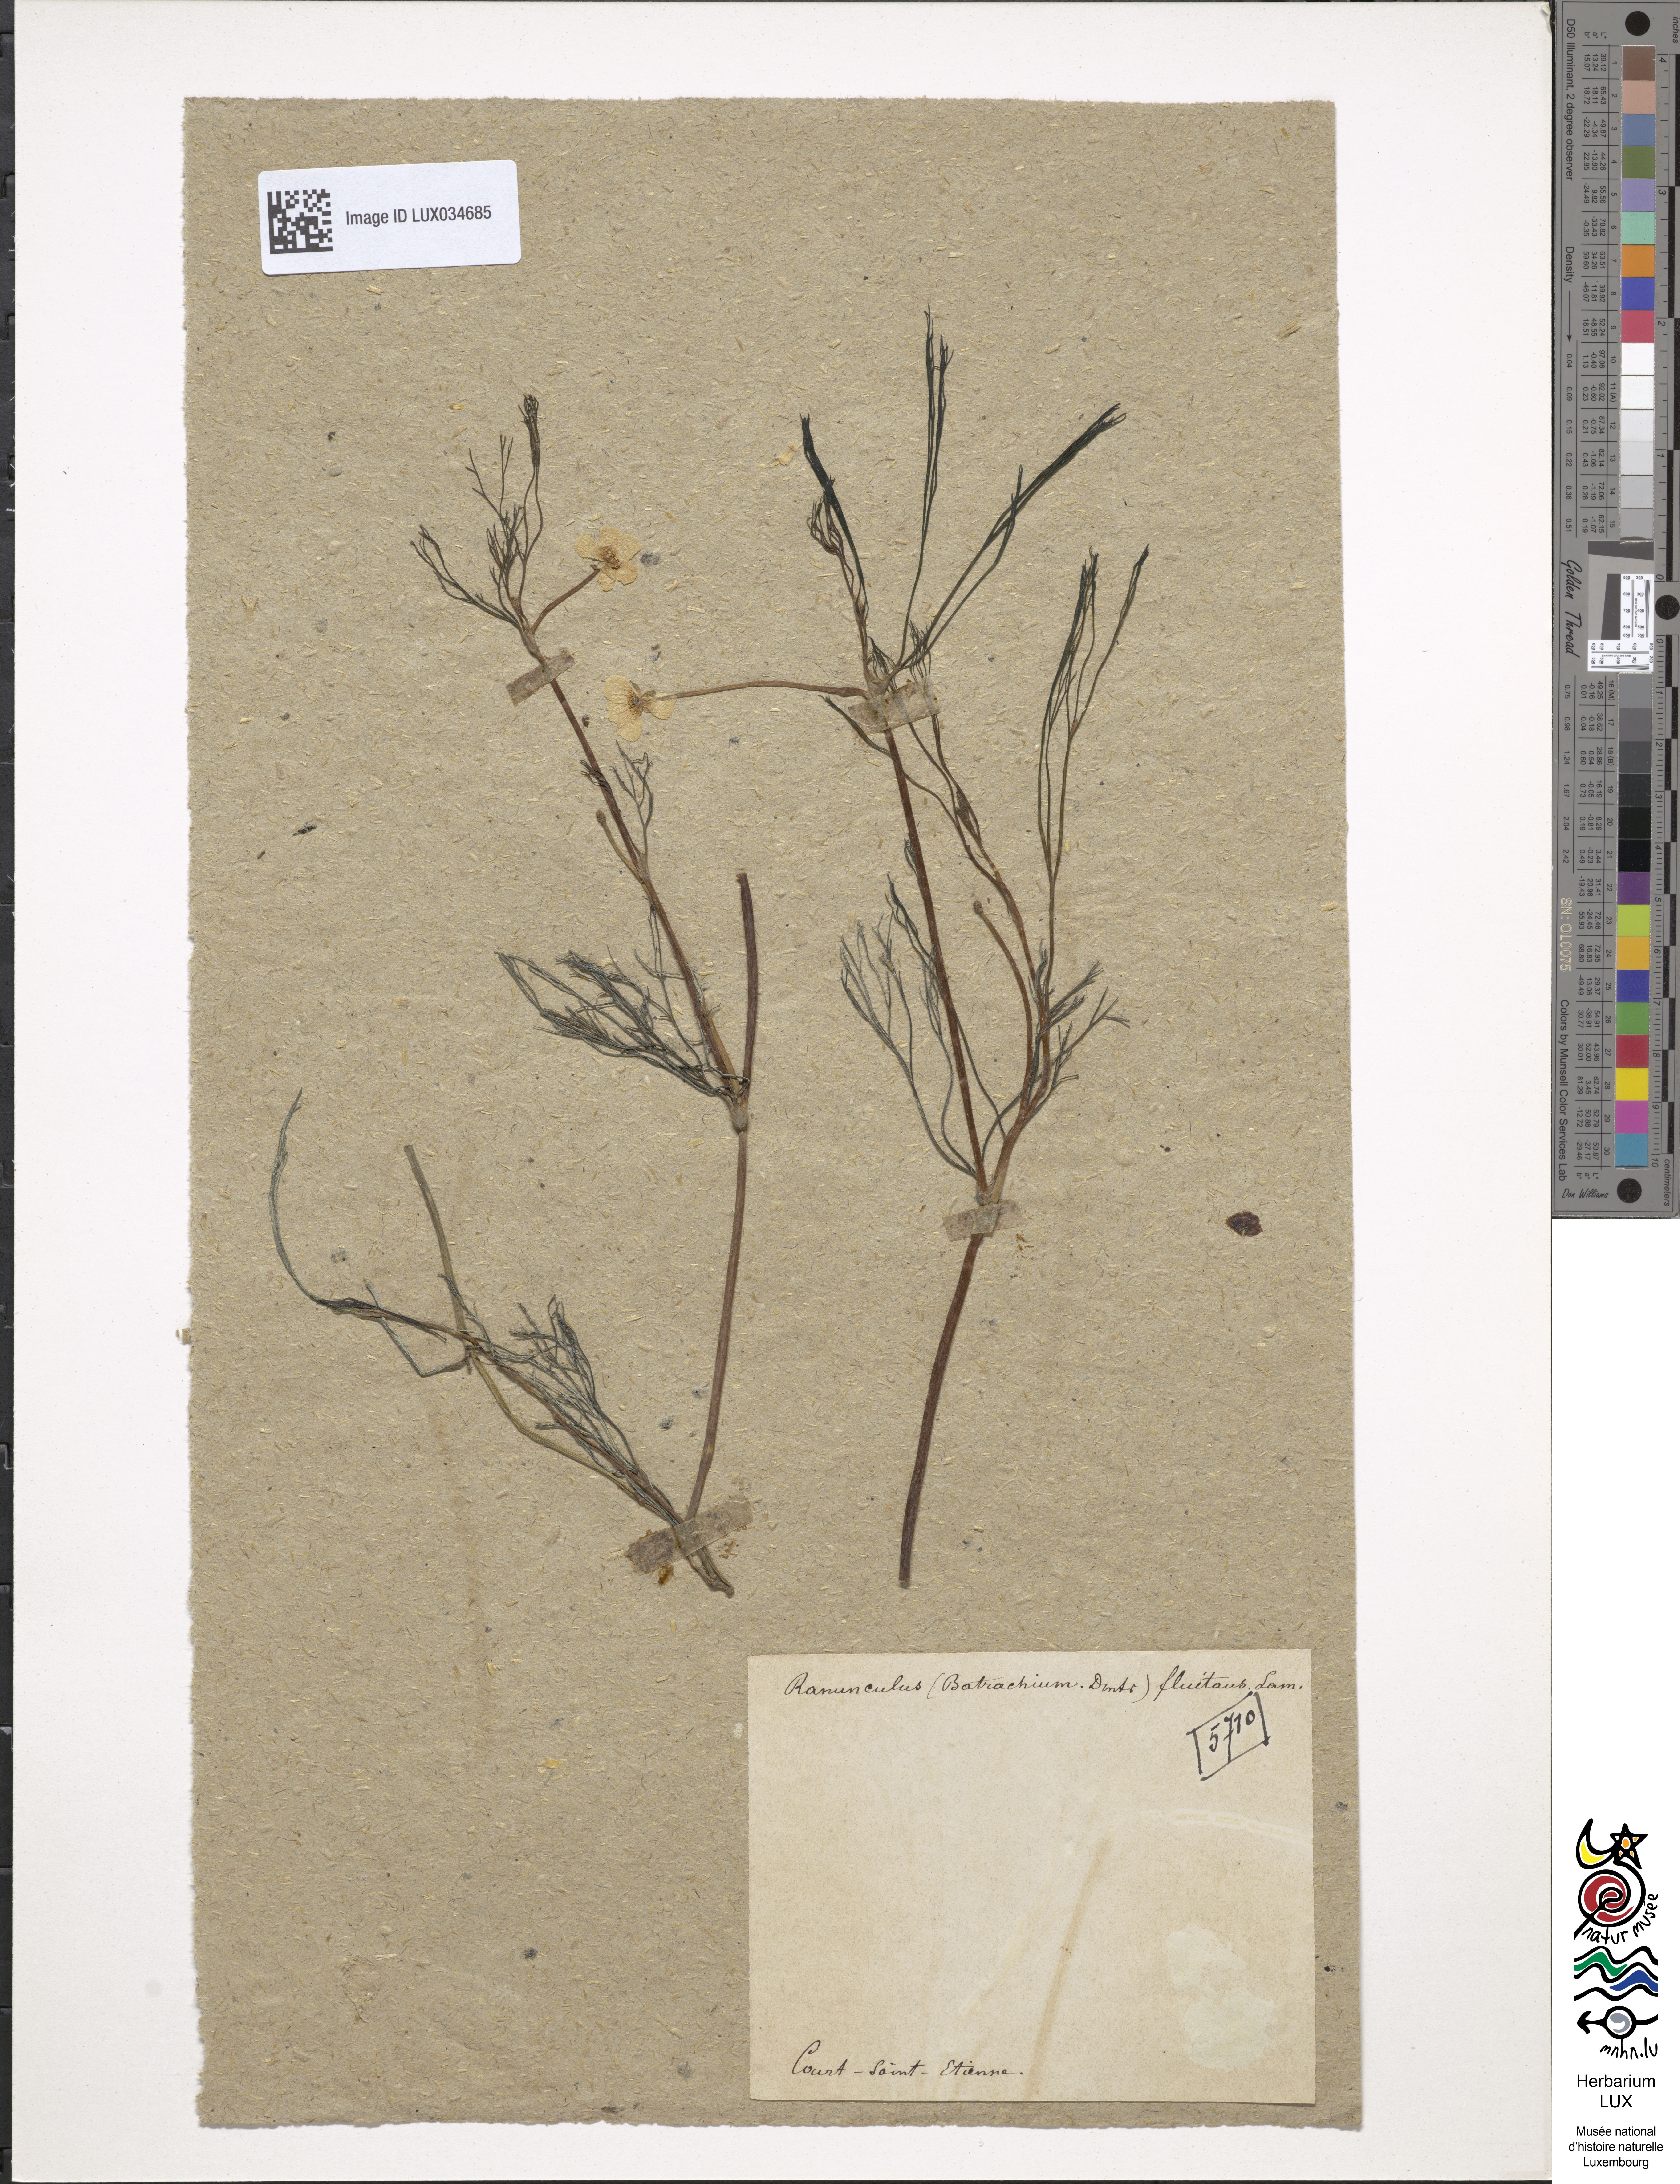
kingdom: Plantae
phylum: Tracheophyta
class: Magnoliopsida
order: Ranunculales
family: Ranunculaceae
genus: Ranunculus
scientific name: Ranunculus fluitans
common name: River water-crowfoot
